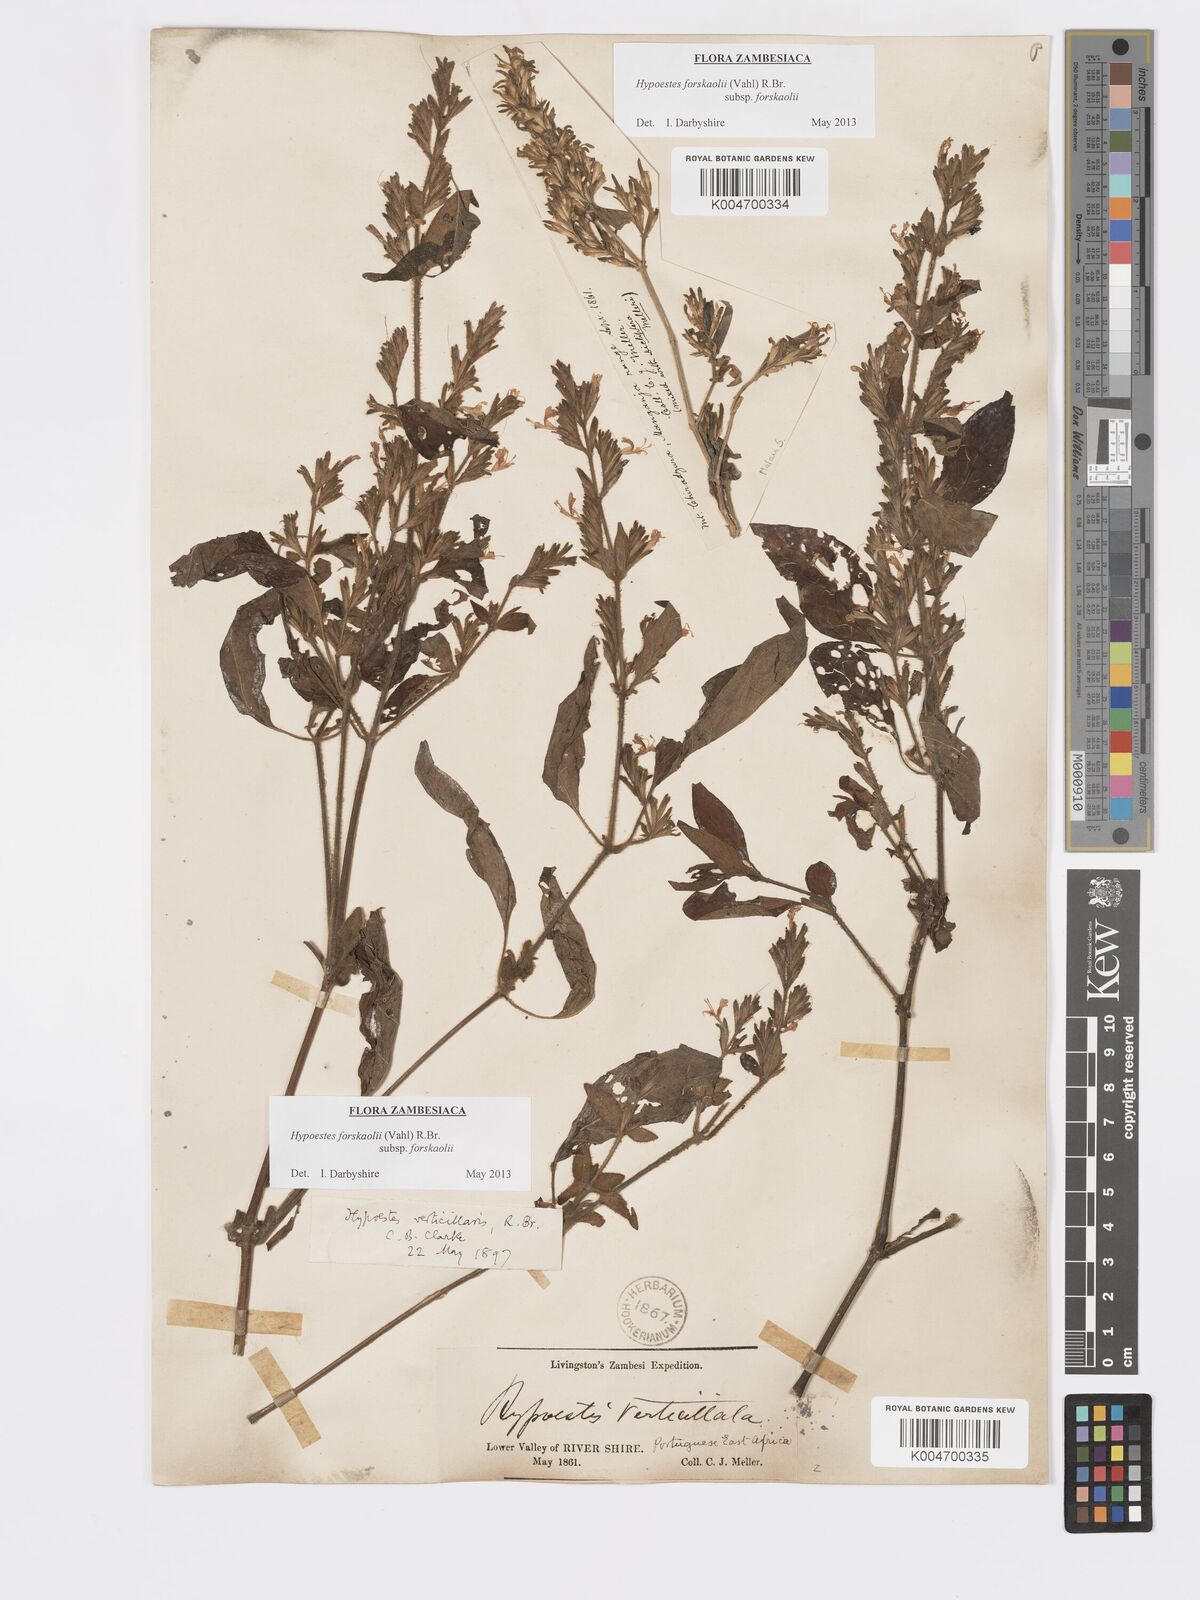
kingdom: Plantae
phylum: Tracheophyta
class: Magnoliopsida
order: Lamiales
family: Acanthaceae
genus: Hypoestes
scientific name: Hypoestes forskaolii
